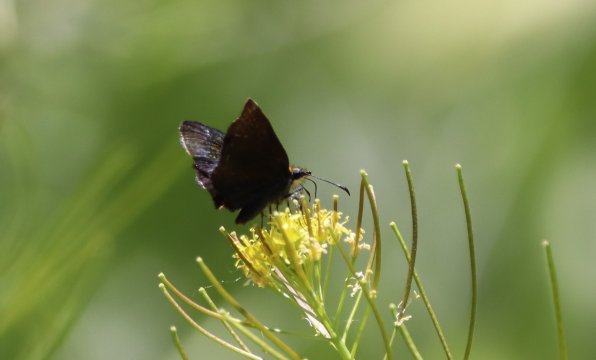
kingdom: Animalia
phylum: Arthropoda
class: Insecta
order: Lepidoptera
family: Hesperiidae
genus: Staphylus
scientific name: Staphylus ceos
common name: Golden-headed Scallopwing
